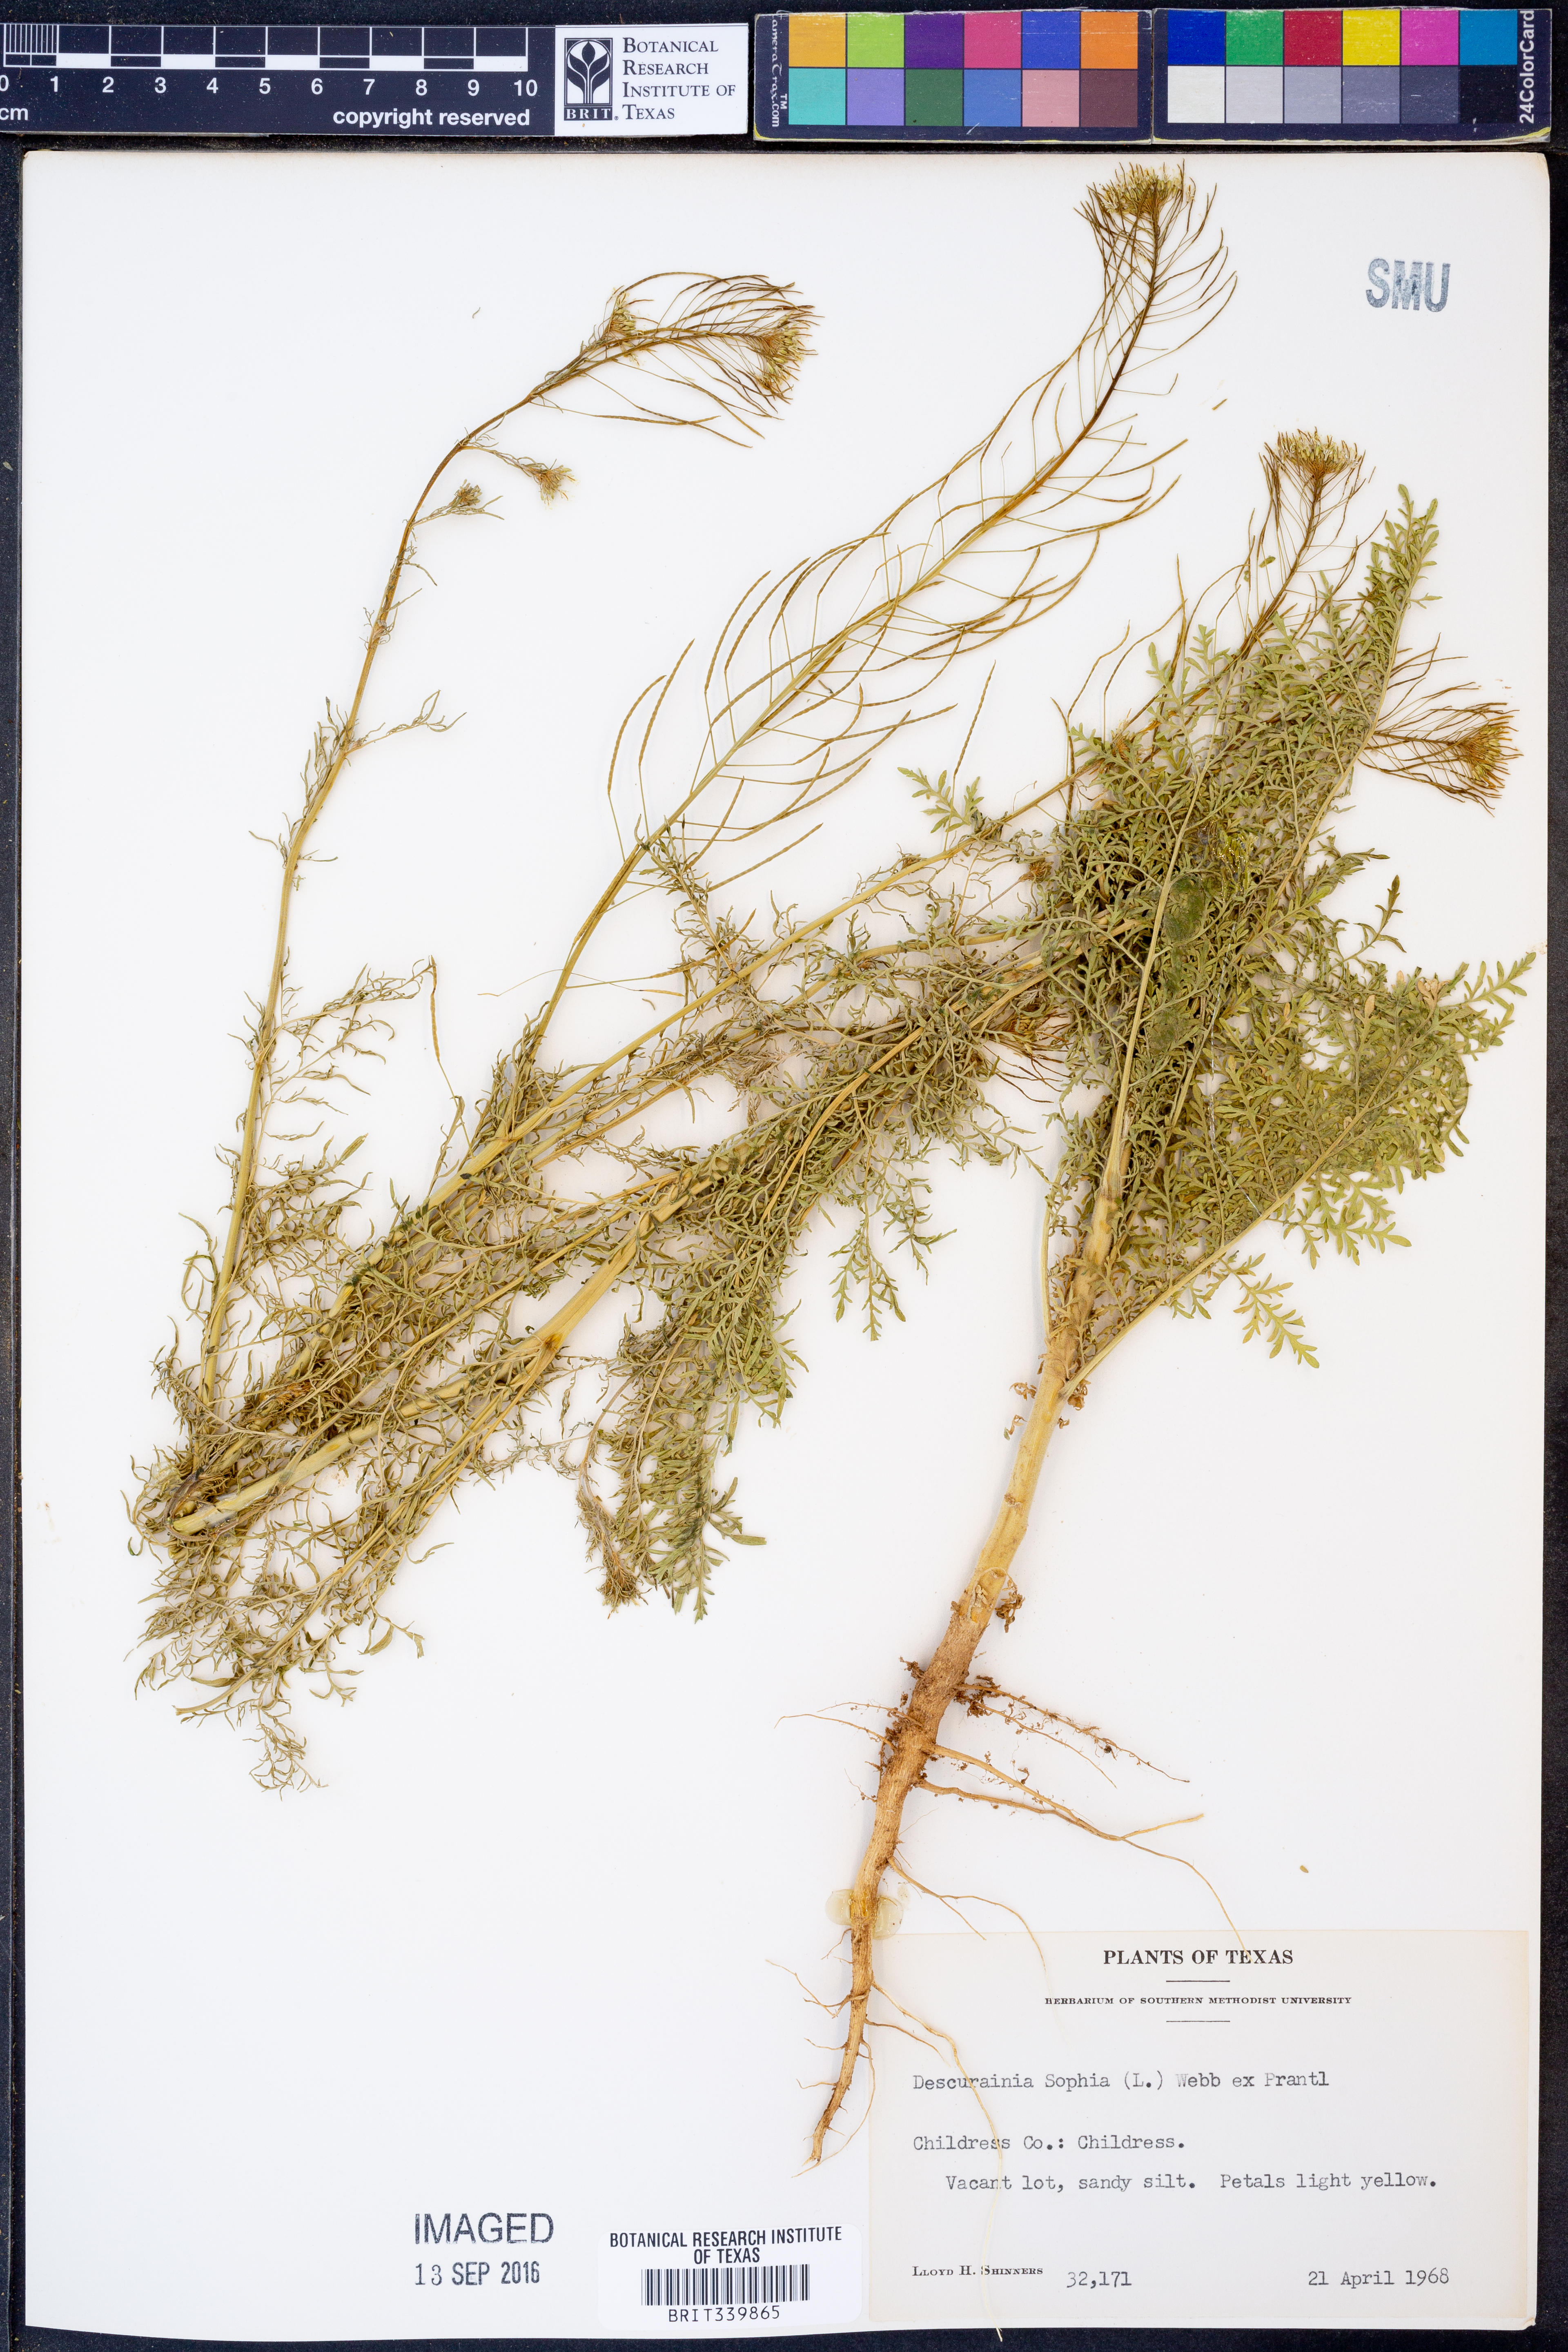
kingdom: Plantae
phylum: Tracheophyta
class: Magnoliopsida
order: Brassicales
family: Brassicaceae
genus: Descurainia
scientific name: Descurainia sophia
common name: Flixweed
